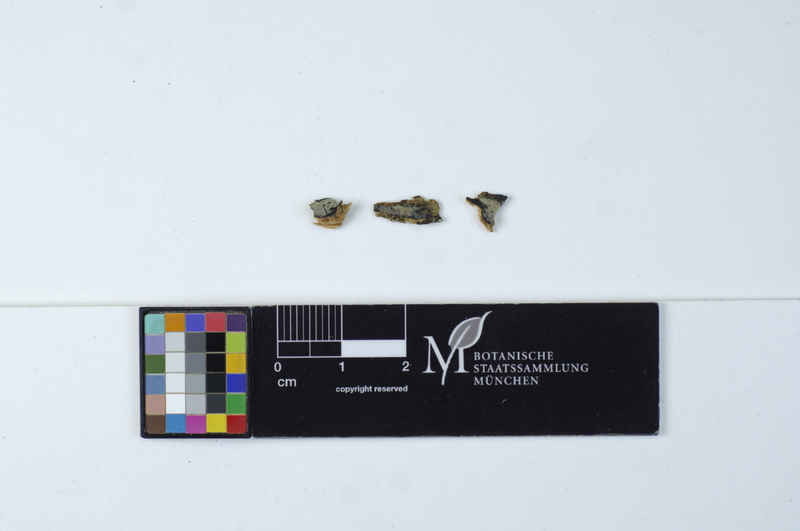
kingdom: Fungi
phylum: Basidiomycota
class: Agaricomycetes
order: Russulales
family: Stereaceae
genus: Acanthophysellum
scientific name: Acanthophysellum lividocoeruleum
